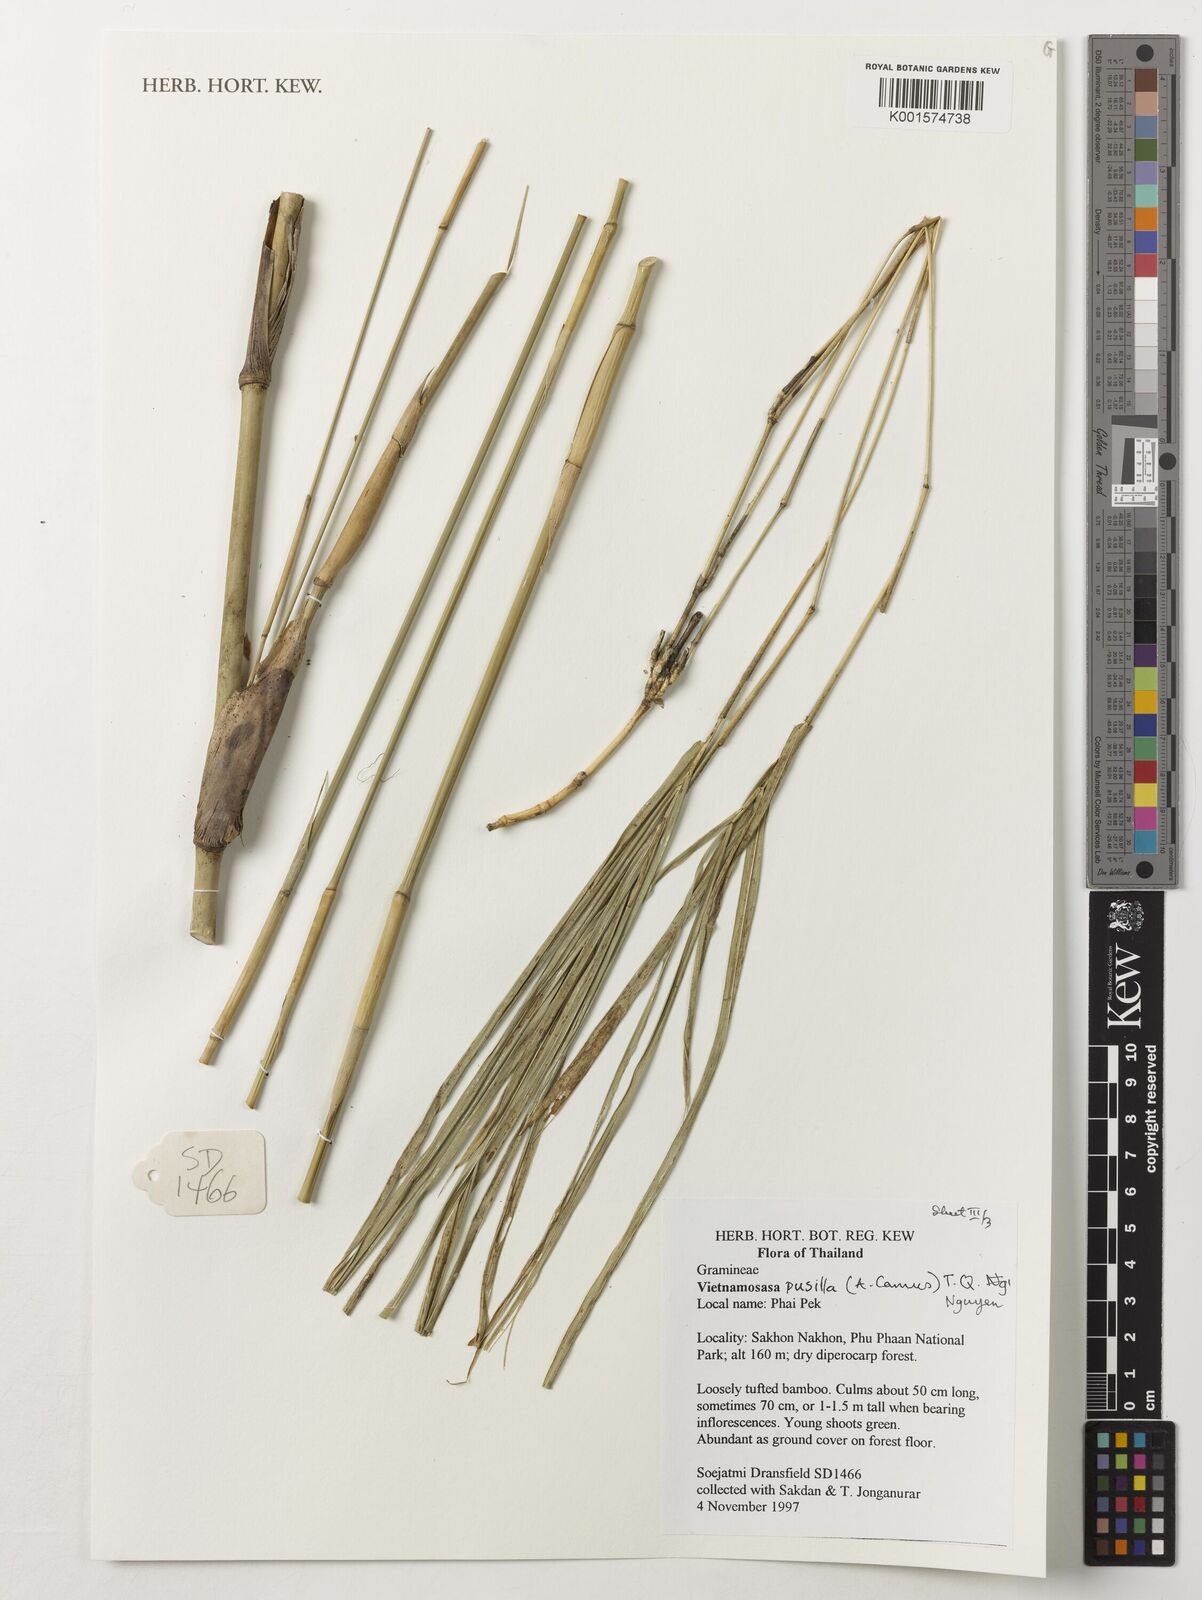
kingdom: Plantae
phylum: Tracheophyta
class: Liliopsida
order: Poales
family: Poaceae
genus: Vietnamosasa
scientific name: Vietnamosasa pusilla
